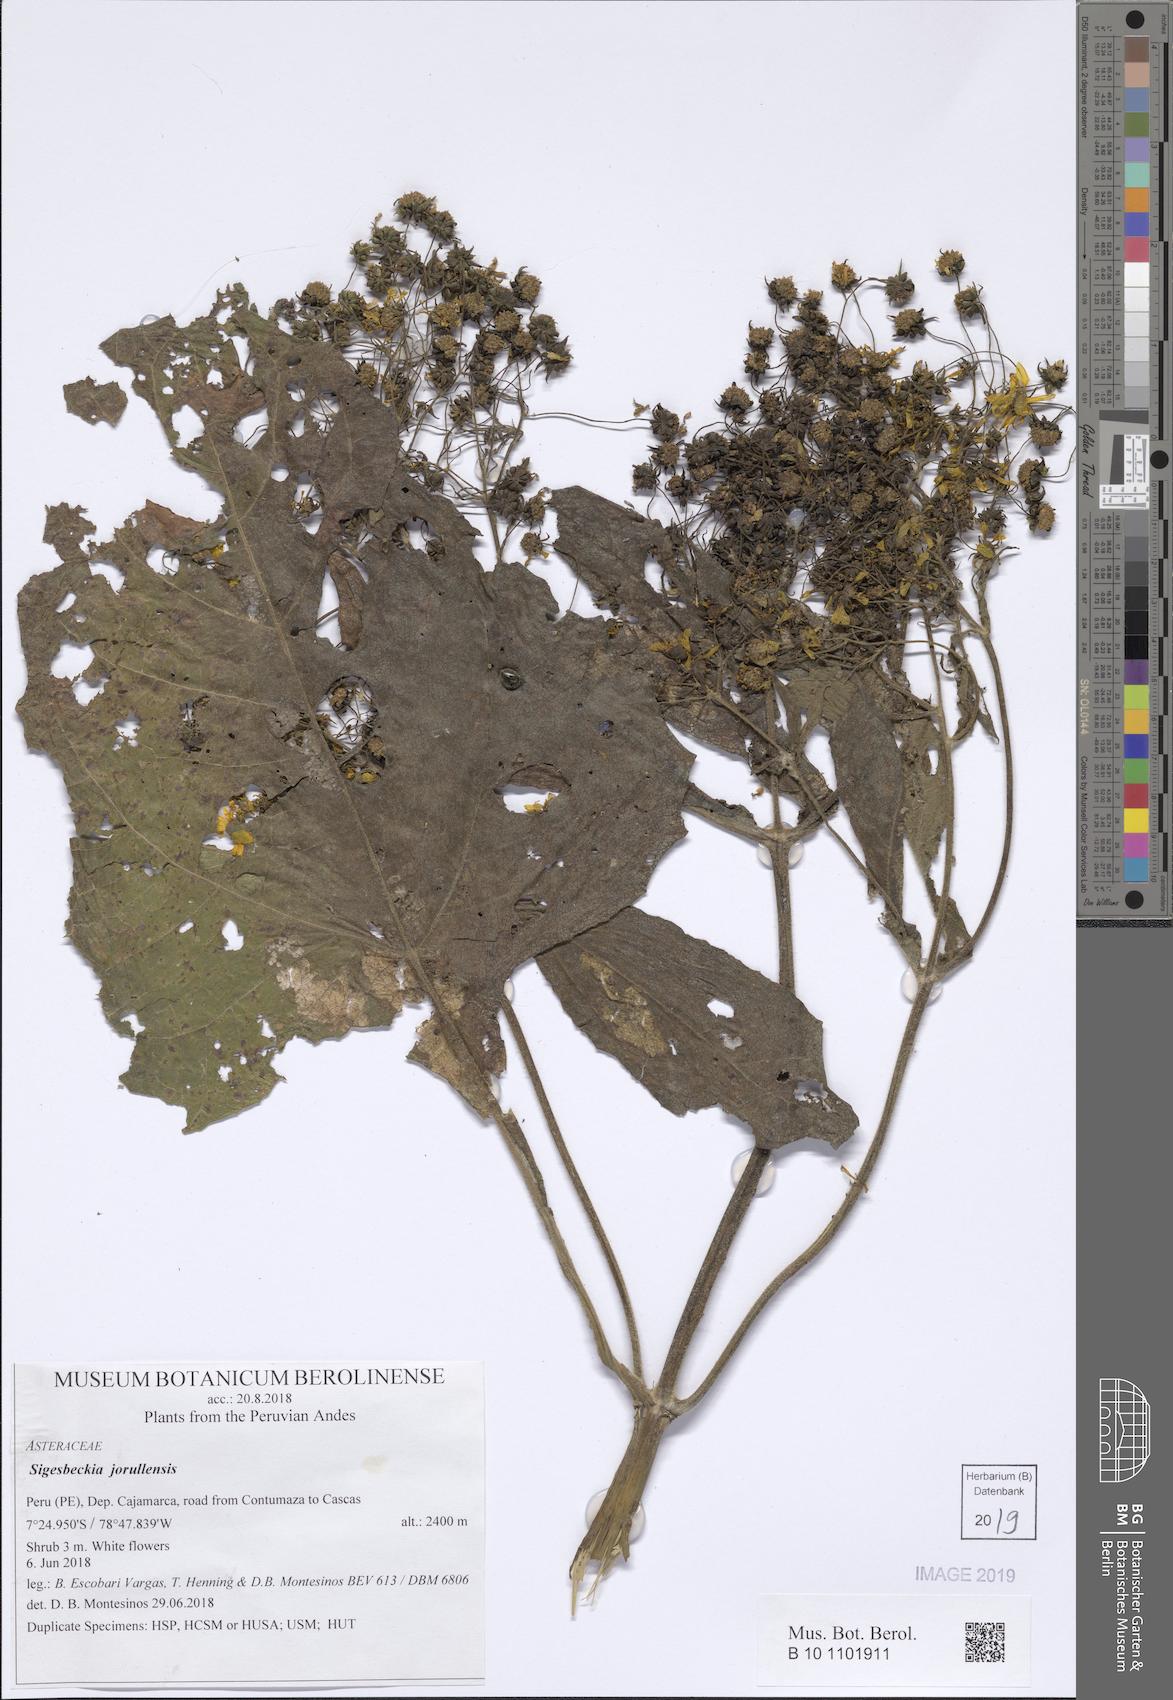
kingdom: Plantae
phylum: Tracheophyta
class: Magnoliopsida
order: Asterales
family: Asteraceae
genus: Sigesbeckia
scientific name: Sigesbeckia jorullensis
